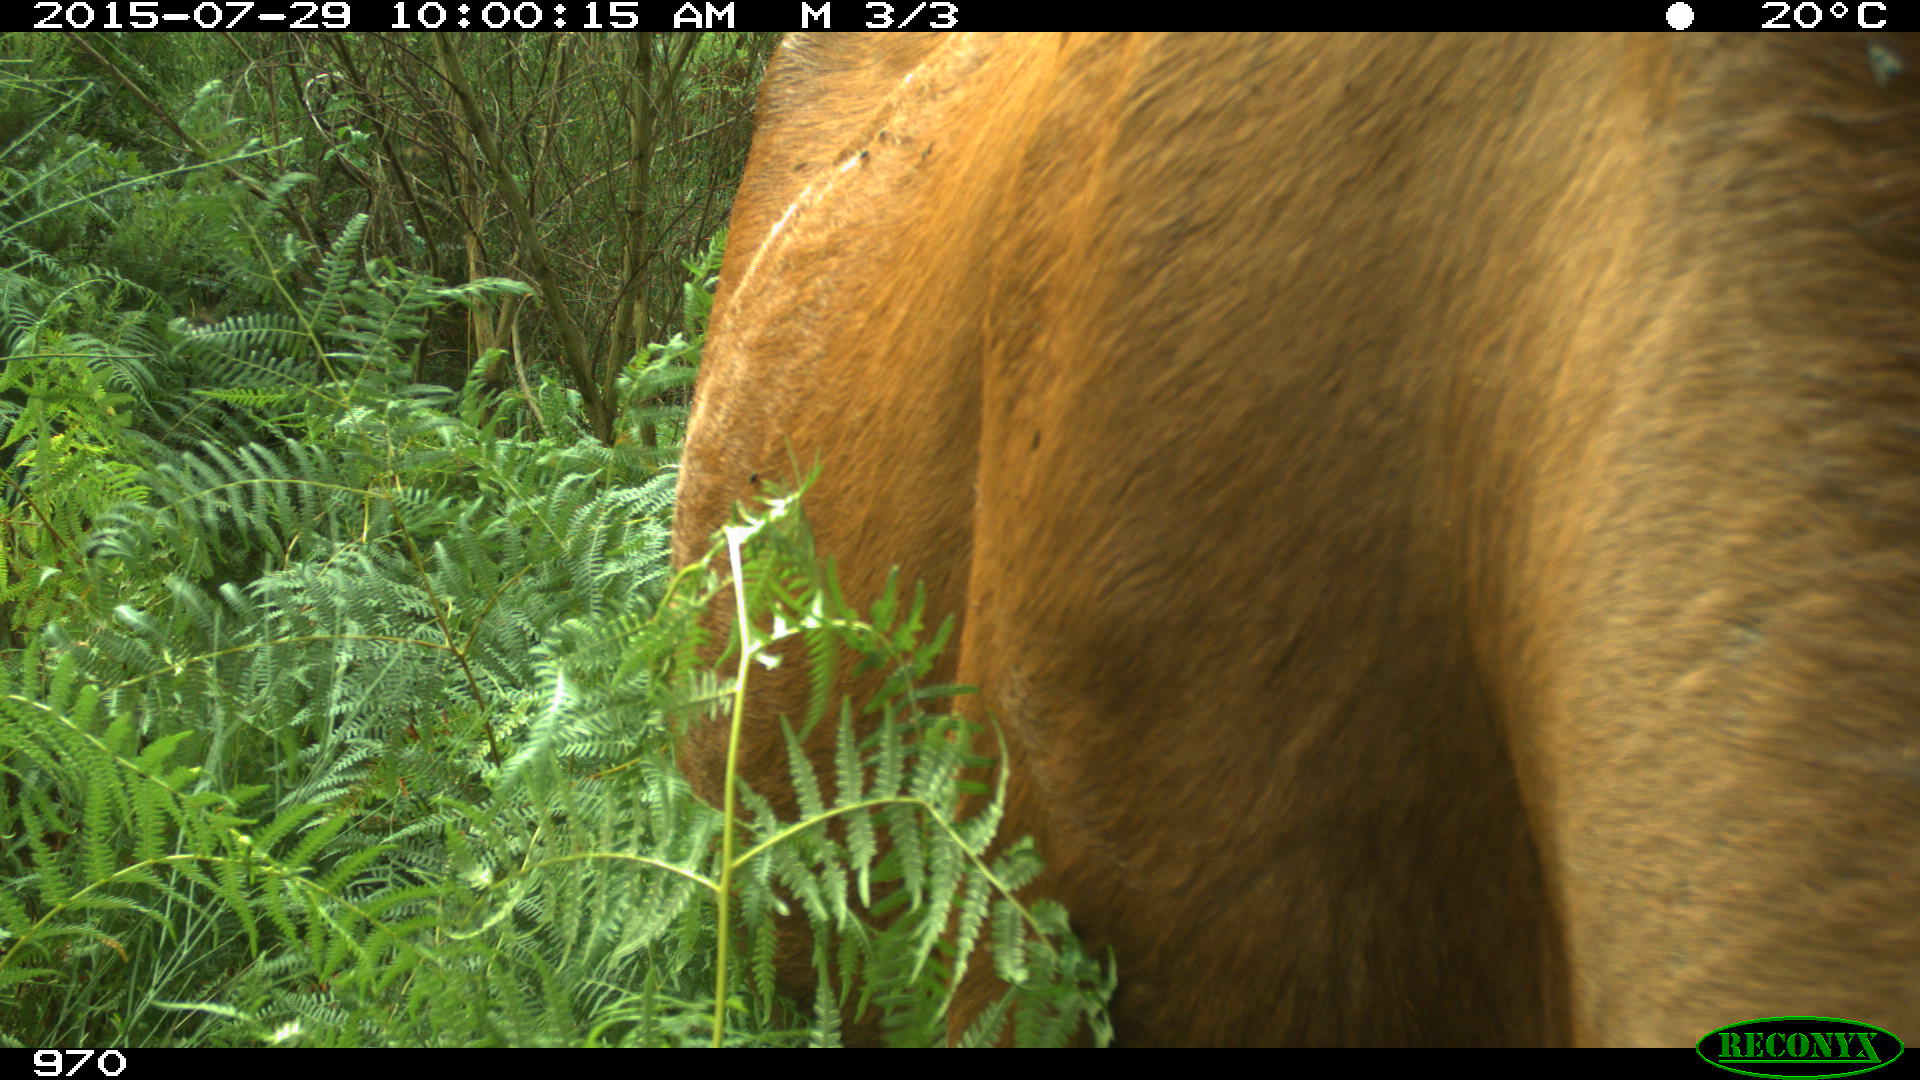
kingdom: Animalia
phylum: Chordata
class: Mammalia
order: Artiodactyla
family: Bovidae
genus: Bos
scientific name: Bos taurus
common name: Domesticated cattle
